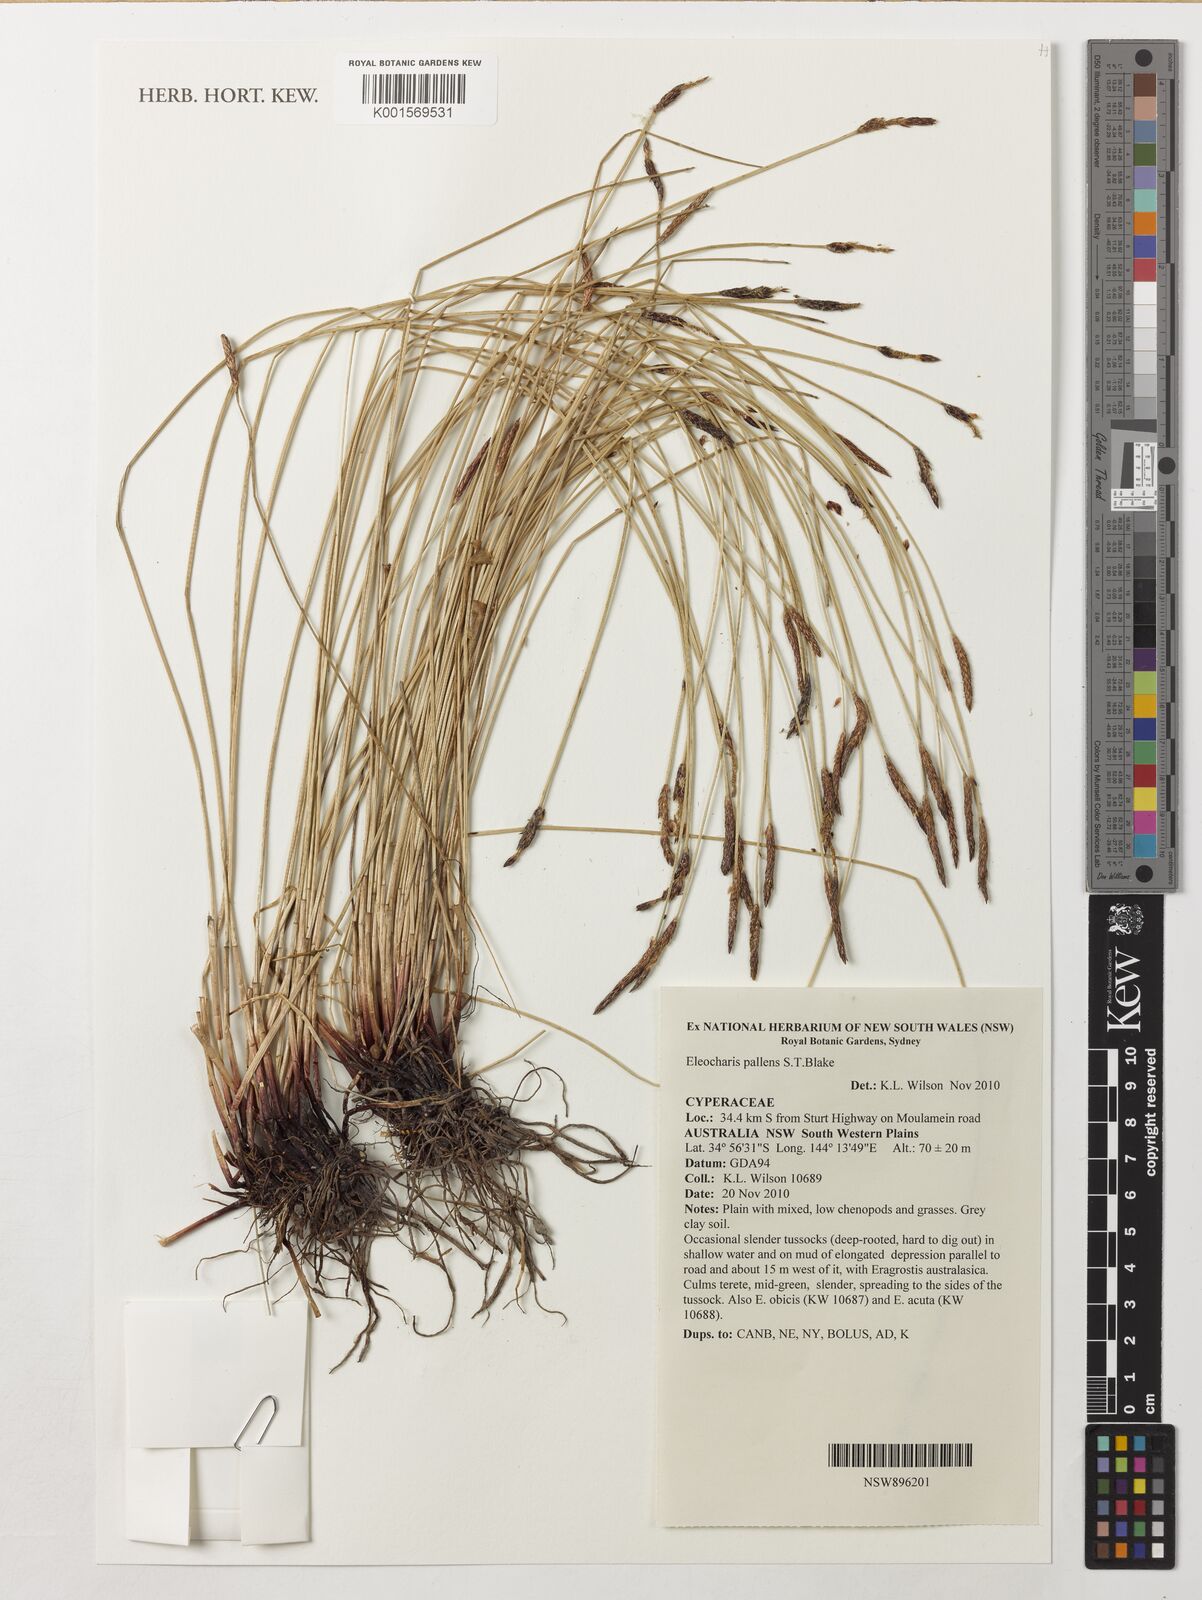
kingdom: Plantae
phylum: Tracheophyta
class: Liliopsida
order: Poales
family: Cyperaceae
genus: Eleocharis
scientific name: Eleocharis pallens
